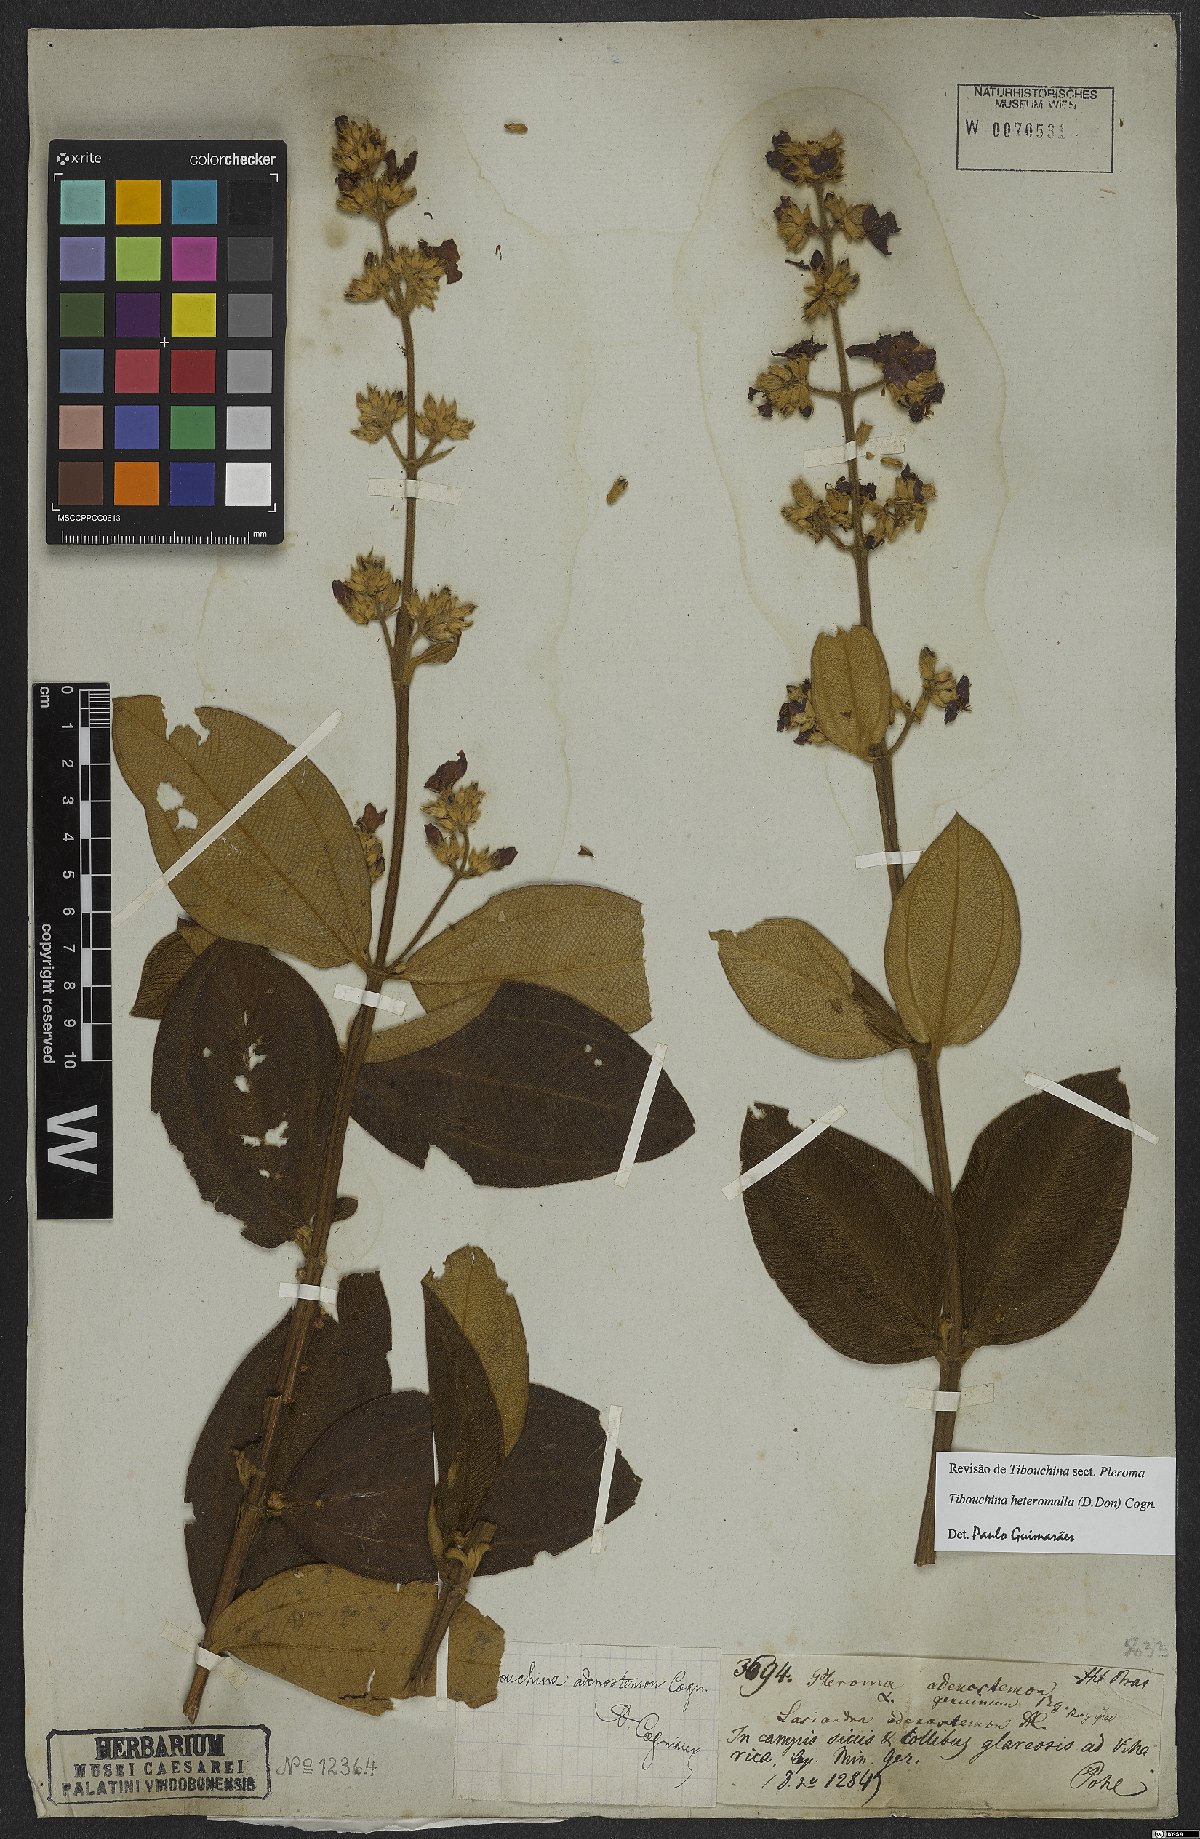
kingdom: Plantae
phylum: Tracheophyta
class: Magnoliopsida
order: Myrtales
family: Melastomataceae
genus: Pleroma
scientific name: Pleroma heteromallum
